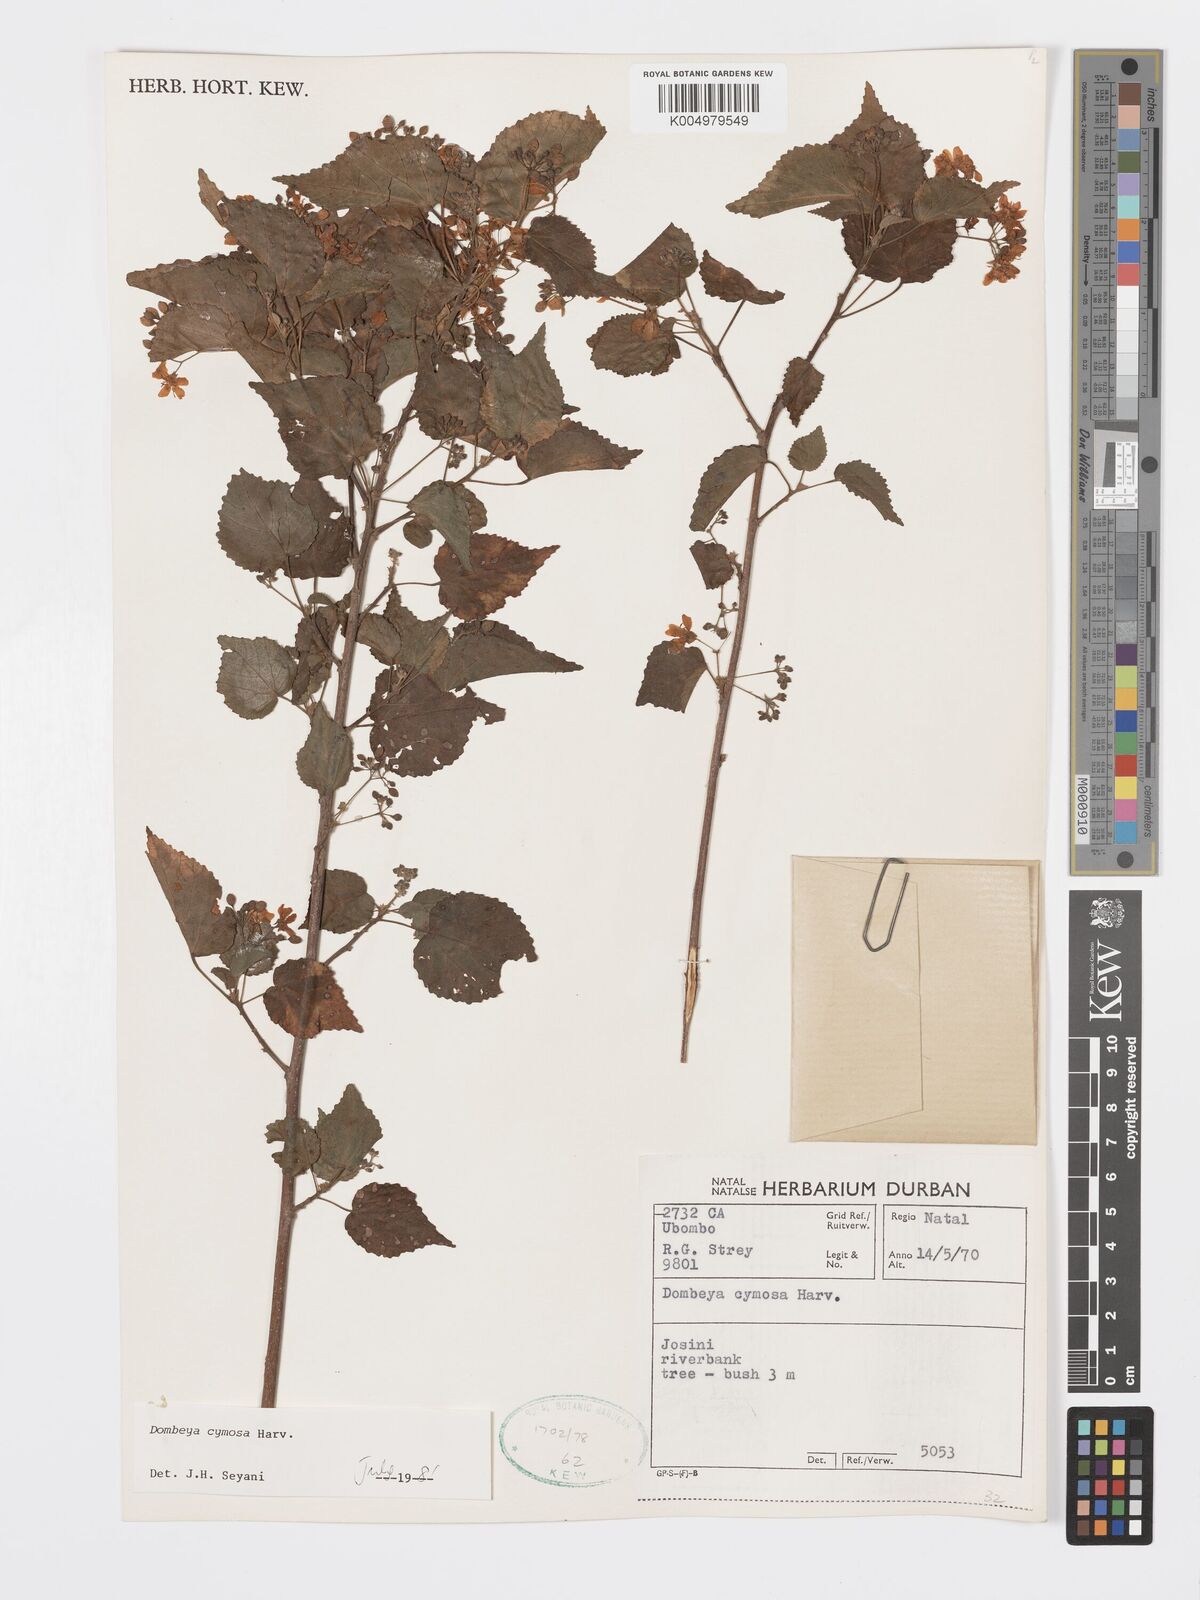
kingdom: Plantae
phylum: Tracheophyta
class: Magnoliopsida
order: Malvales
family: Malvaceae
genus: Dombeya
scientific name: Dombeya cymosa
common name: Hairless dombeya
